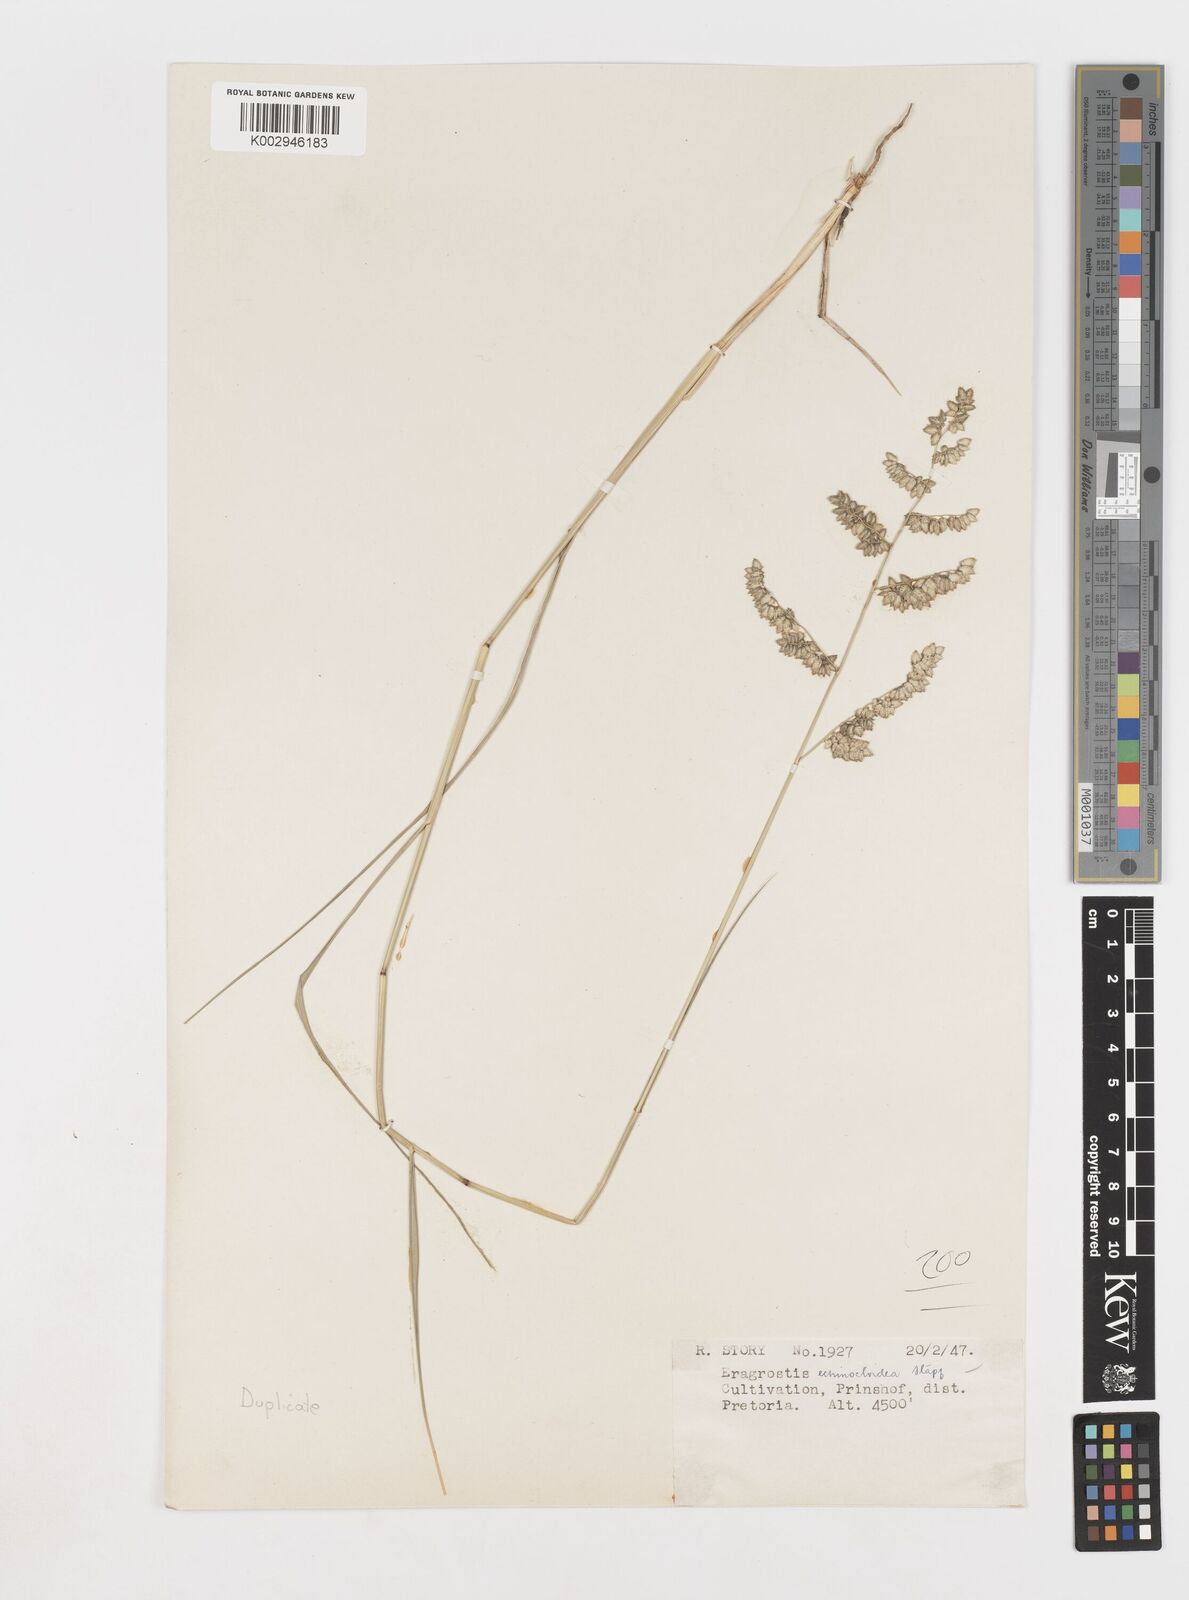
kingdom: Plantae
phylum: Tracheophyta
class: Liliopsida
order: Poales
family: Poaceae
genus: Eragrostis
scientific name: Eragrostis echinochloidea
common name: African lovegrass
